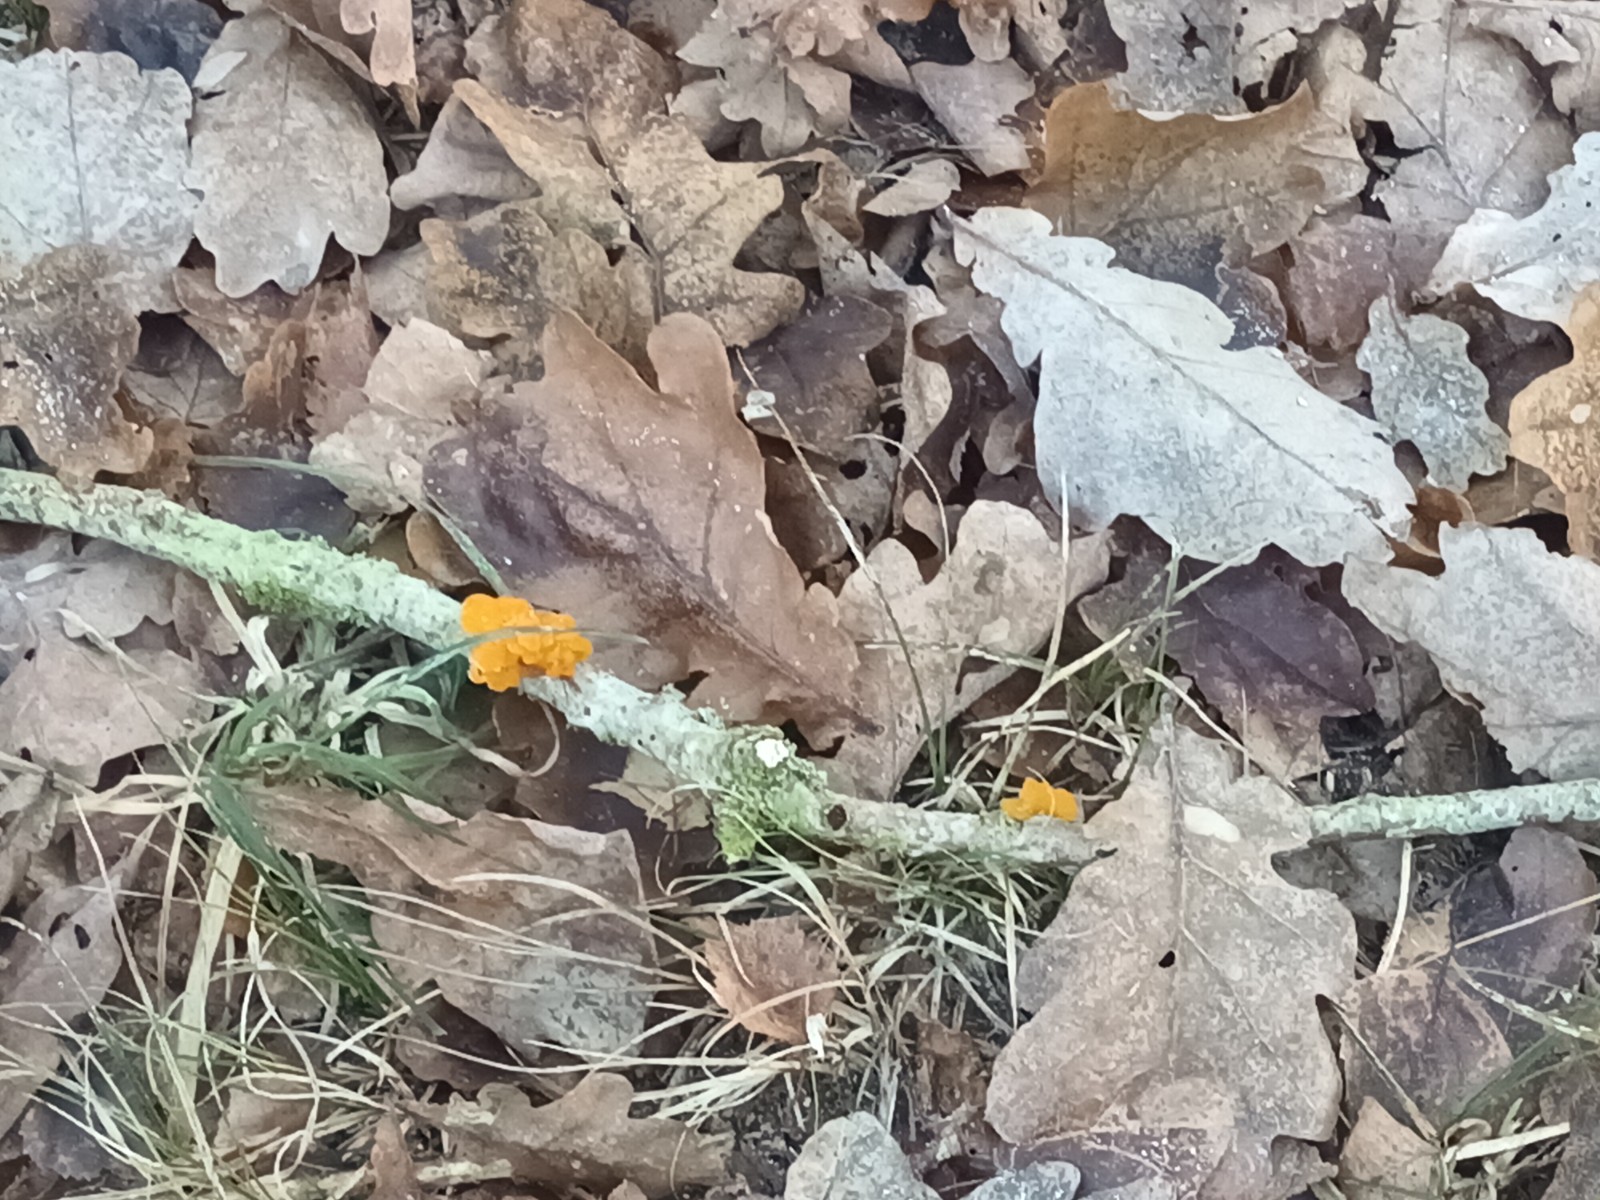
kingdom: Fungi
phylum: Basidiomycota
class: Tremellomycetes
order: Tremellales
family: Tremellaceae
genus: Tremella
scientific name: Tremella mesenterica
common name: gul bævresvamp
